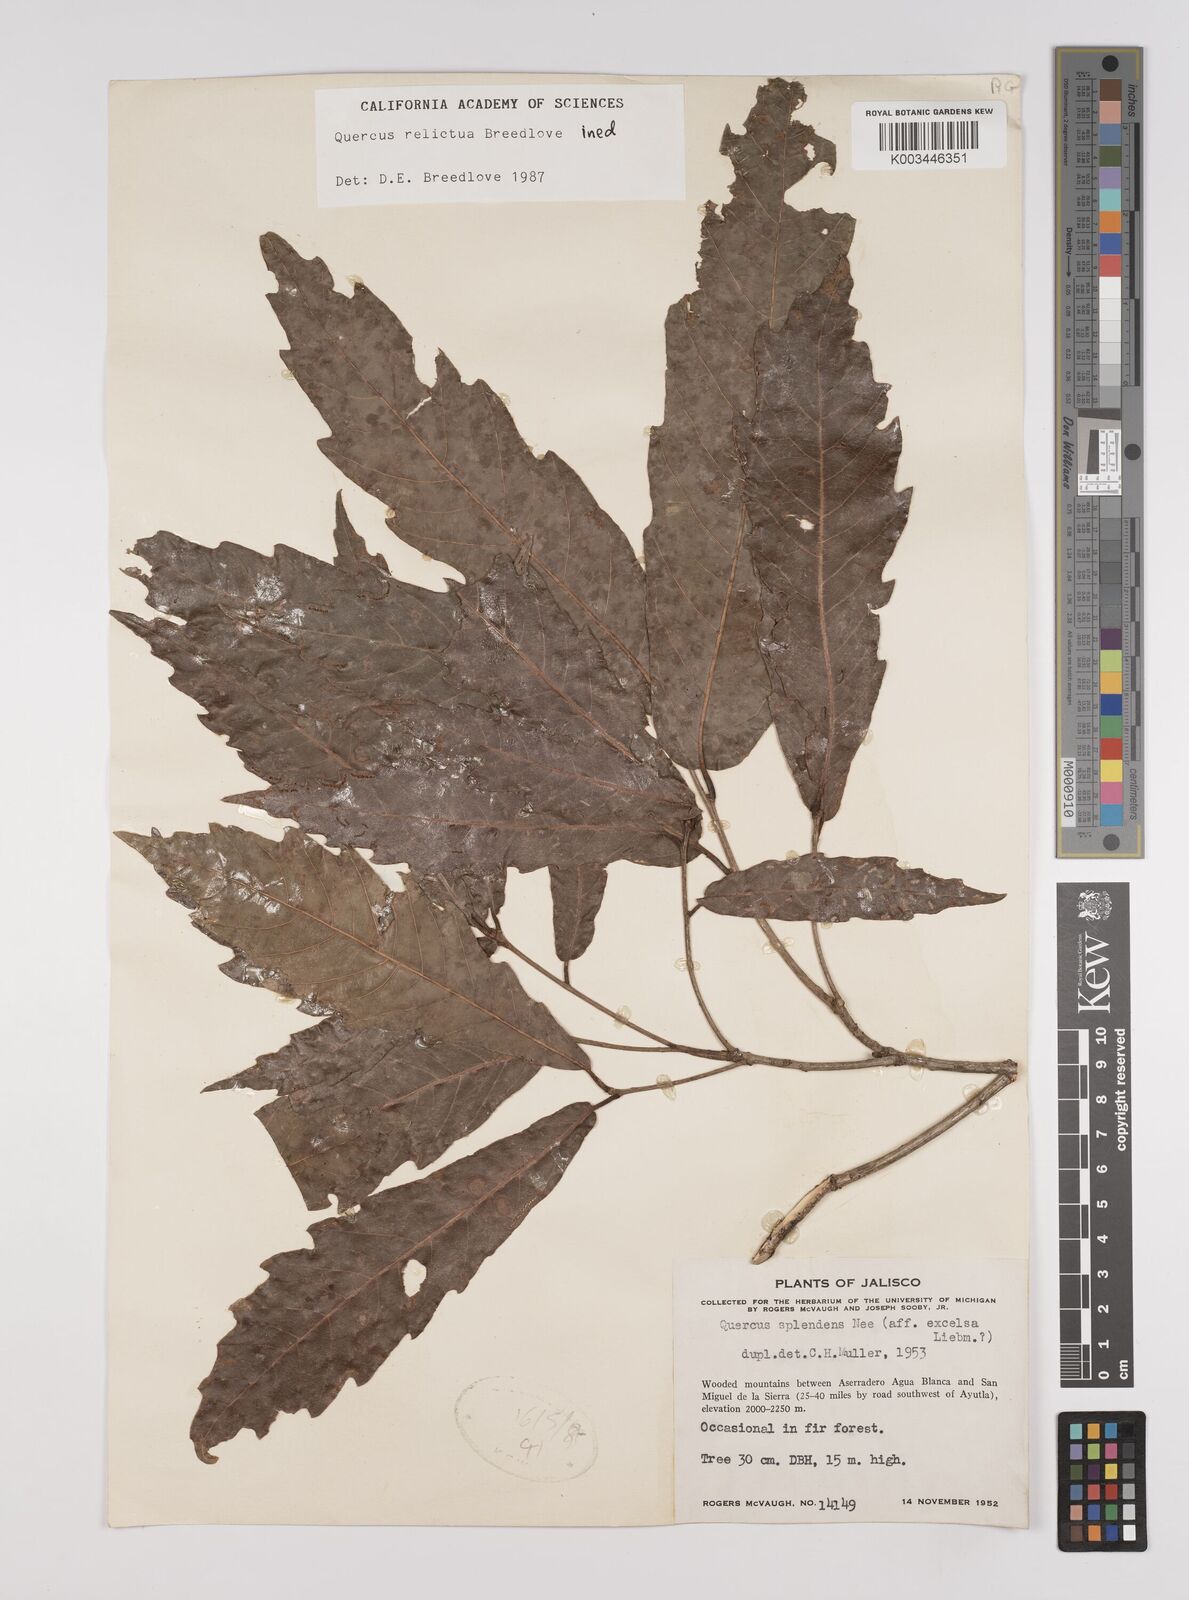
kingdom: Plantae
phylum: Tracheophyta
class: Magnoliopsida
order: Fagales
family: Fagaceae
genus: Quercus
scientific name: Quercus
